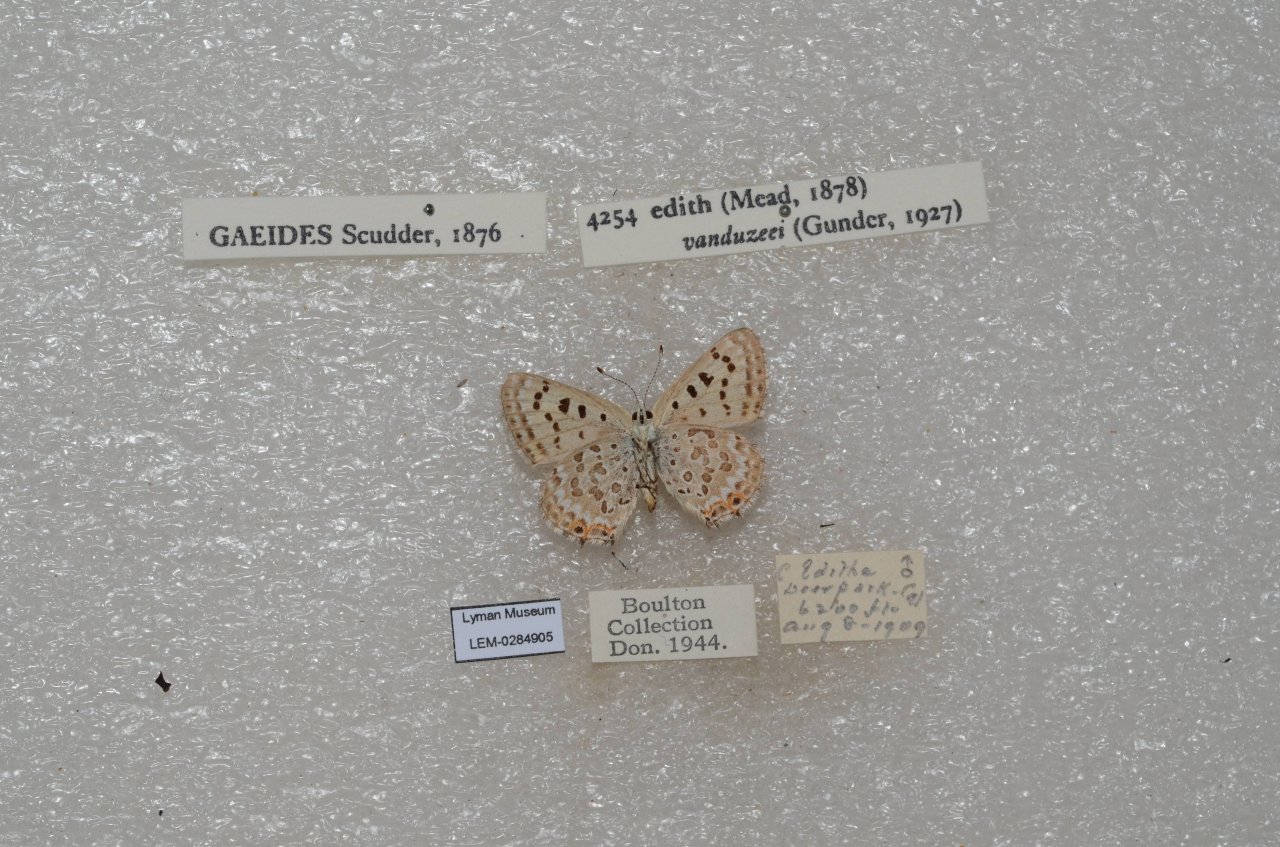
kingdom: Animalia
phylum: Arthropoda
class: Insecta
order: Lepidoptera
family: Lycaenidae
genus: Lycaena
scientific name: Lycaena editha
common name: Edith's Copper
